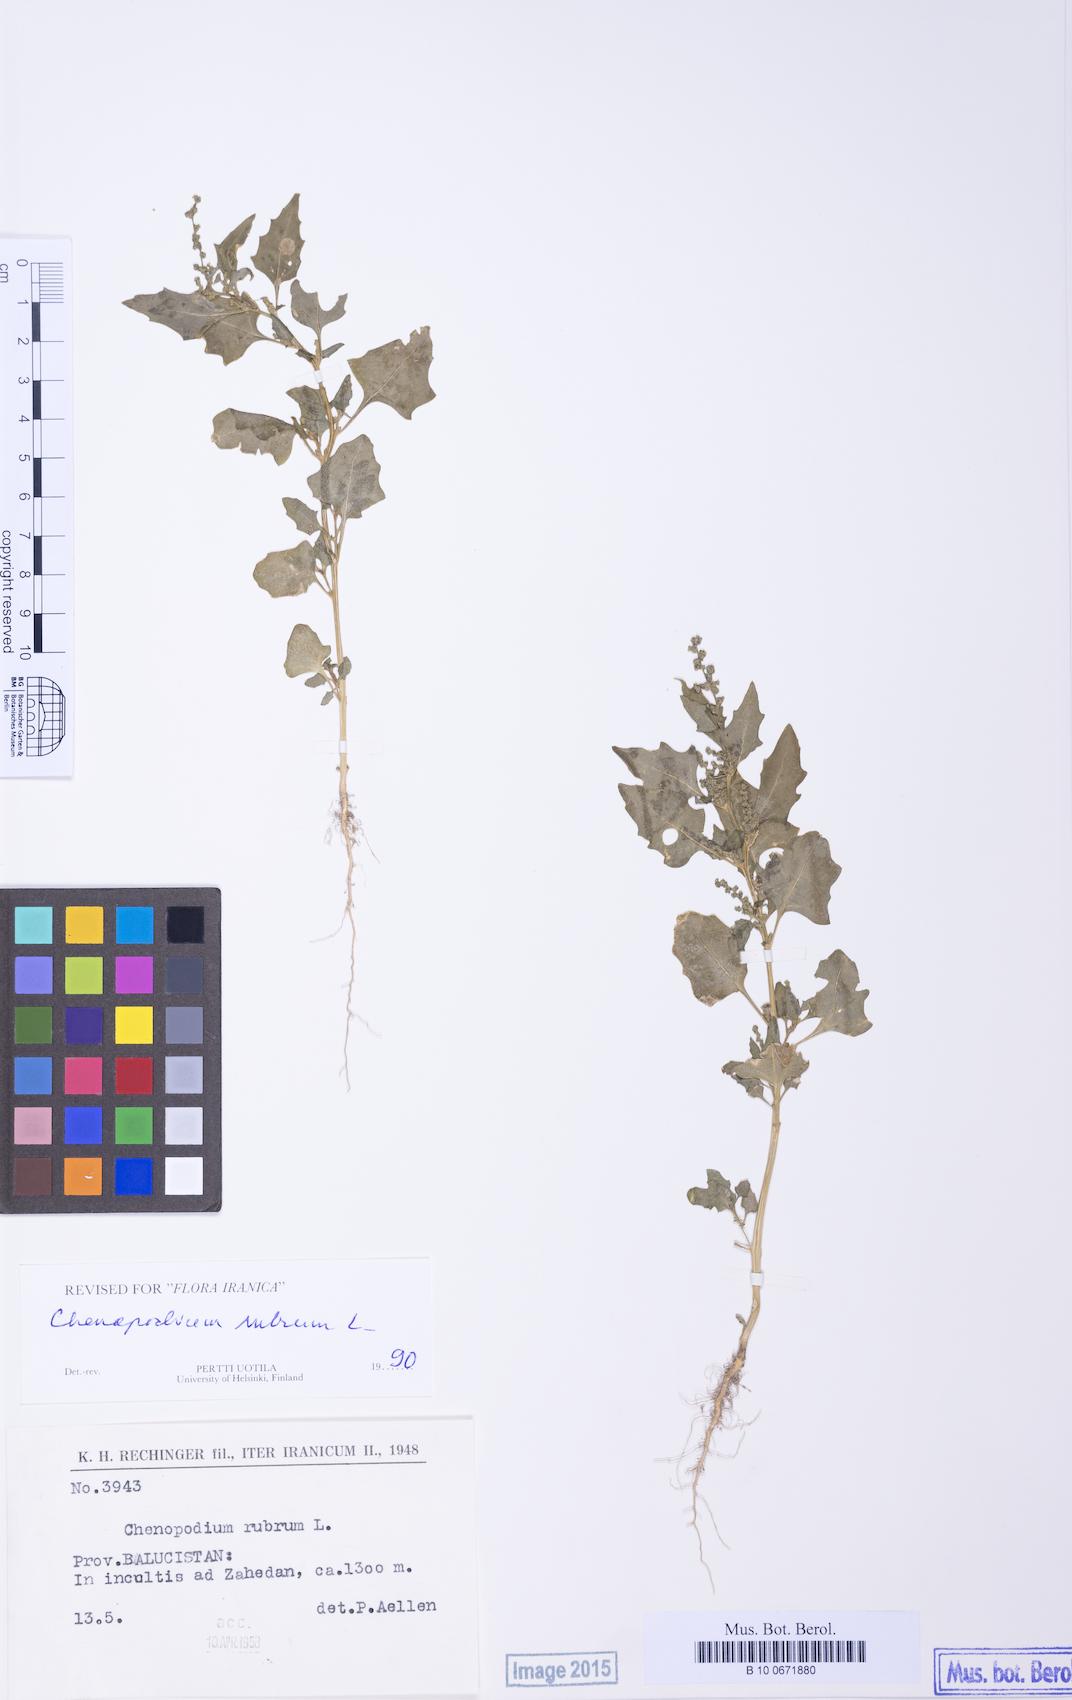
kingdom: Plantae
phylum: Tracheophyta
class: Magnoliopsida
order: Caryophyllales
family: Amaranthaceae
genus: Oxybasis
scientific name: Oxybasis rubra
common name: Red goosefoot
